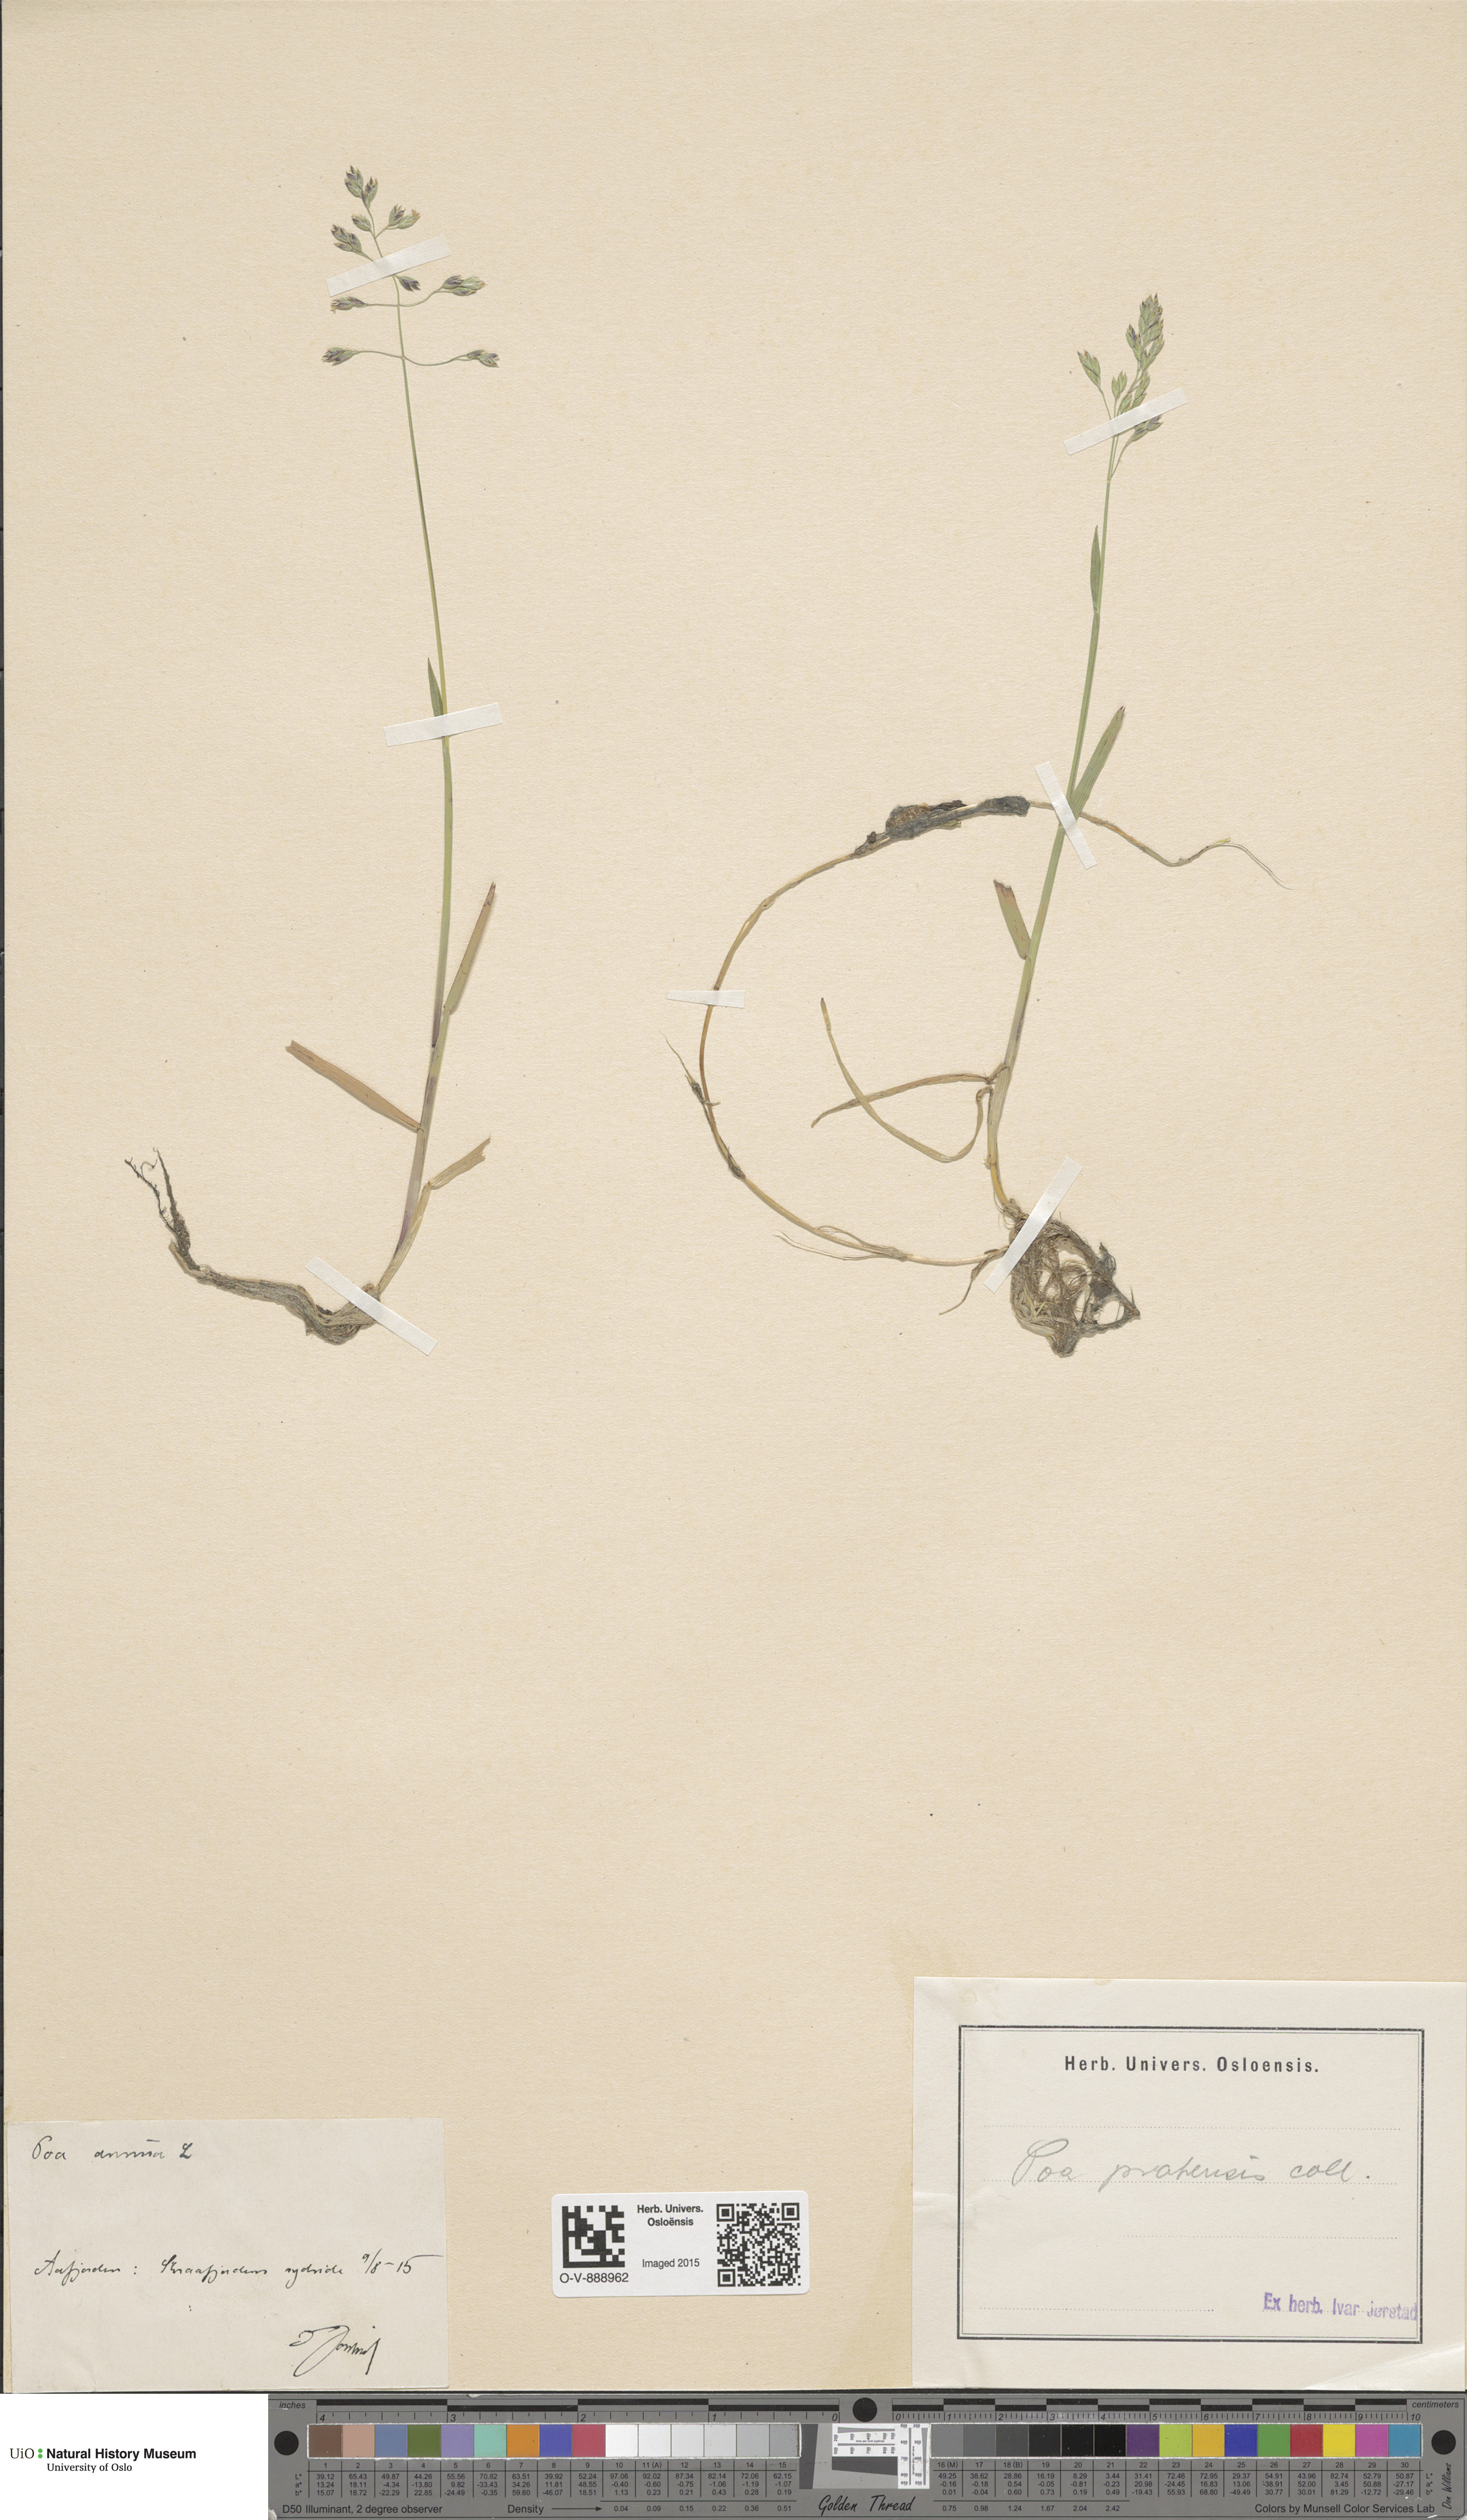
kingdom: Plantae
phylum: Tracheophyta
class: Liliopsida
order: Poales
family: Poaceae
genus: Poa
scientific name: Poa humilis
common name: Spreading meadow-grass
